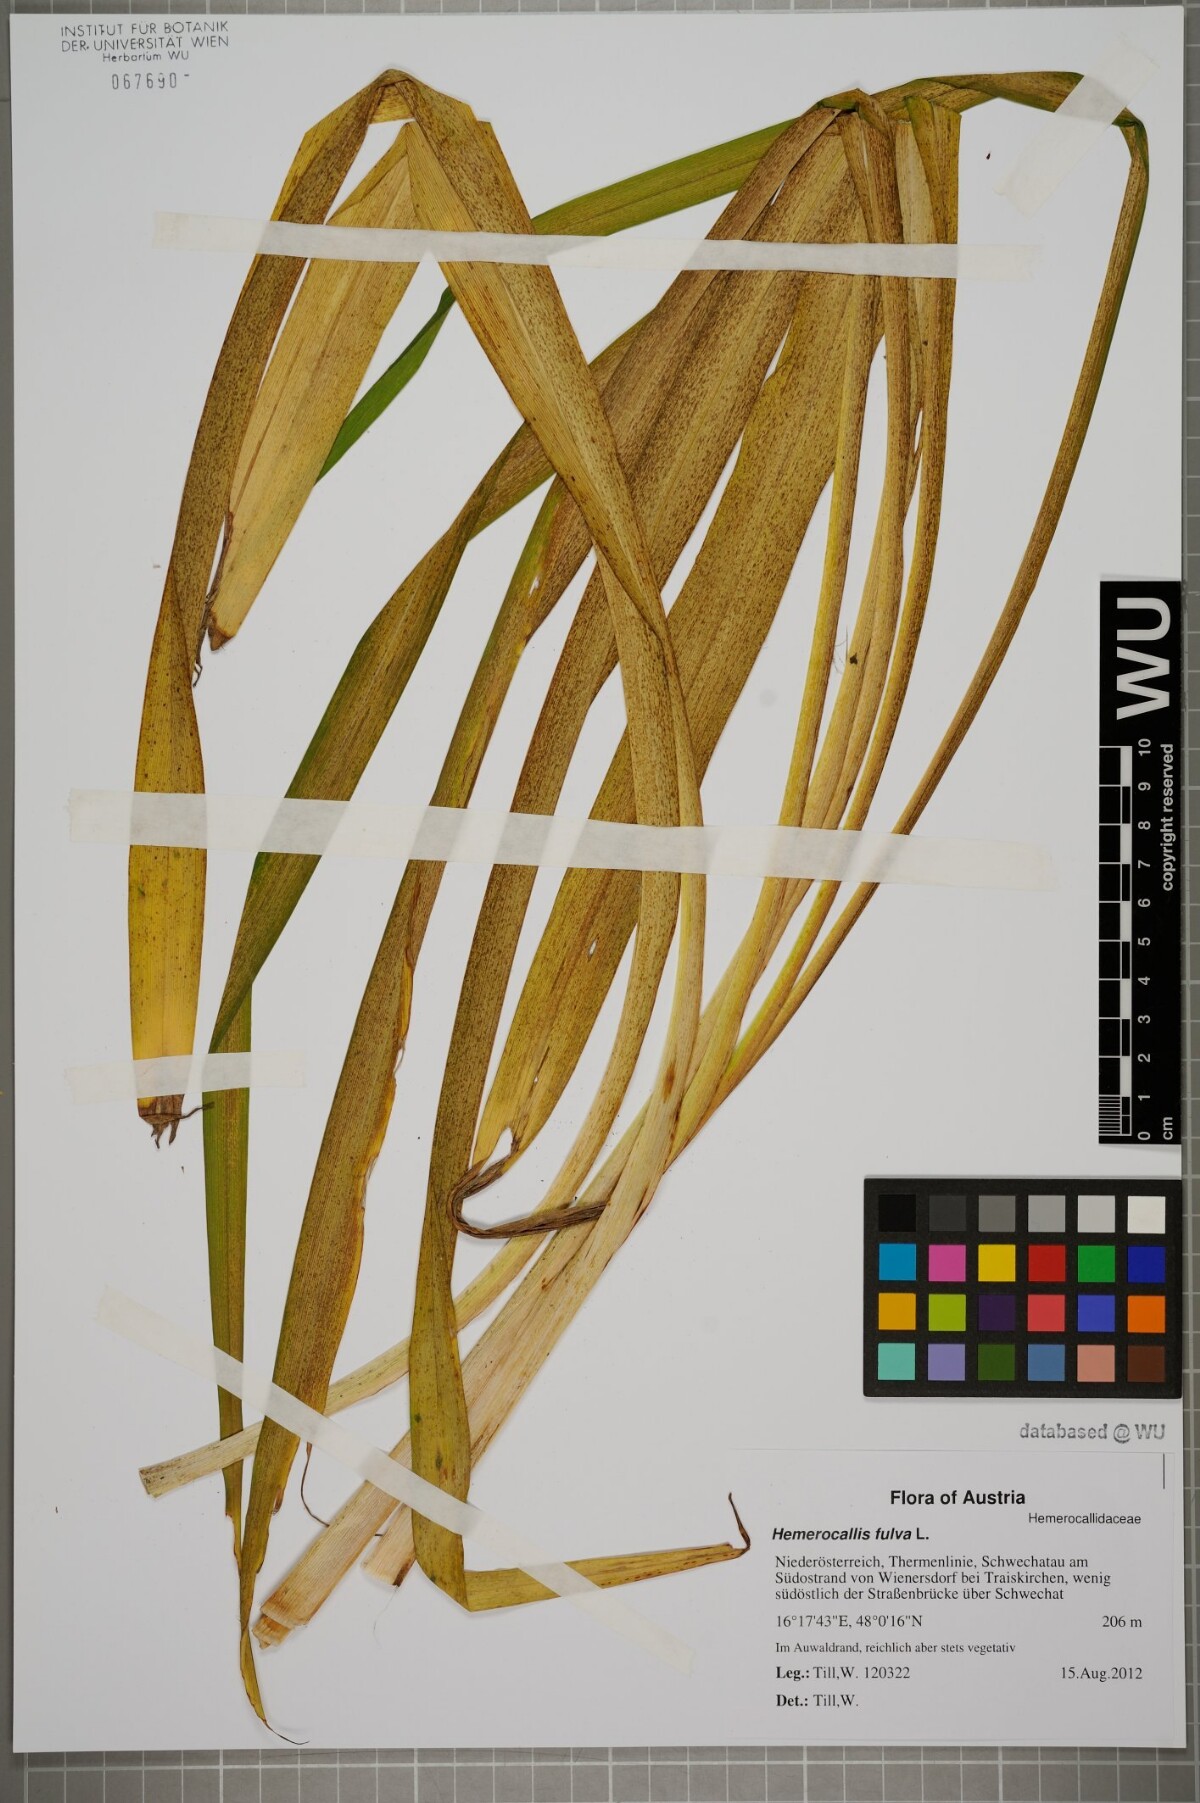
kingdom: Plantae
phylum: Tracheophyta
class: Liliopsida
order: Asparagales
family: Asphodelaceae
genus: Hemerocallis
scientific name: Hemerocallis fulva
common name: Orange day-lily
